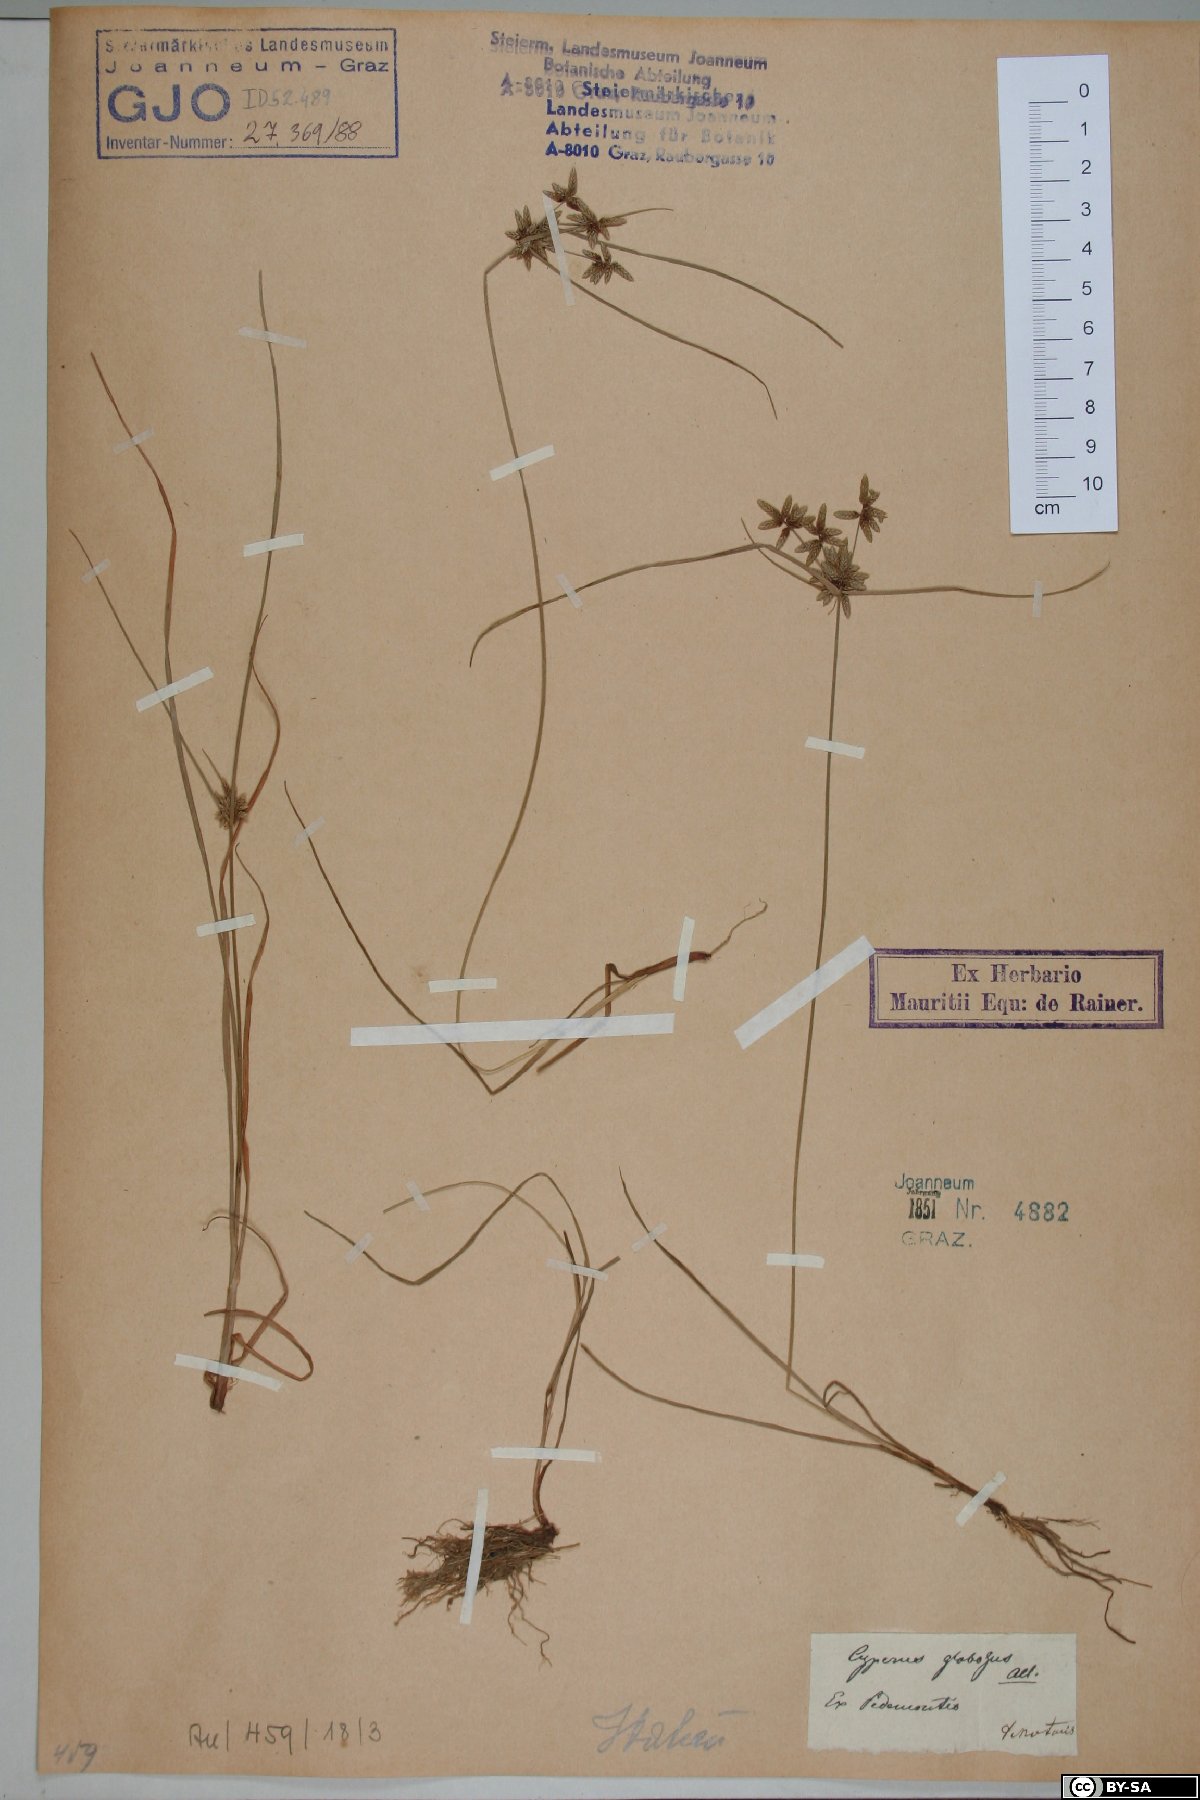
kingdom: Plantae
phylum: Tracheophyta
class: Liliopsida
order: Poales
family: Cyperaceae
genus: Cyperus
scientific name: Cyperus flavidus
